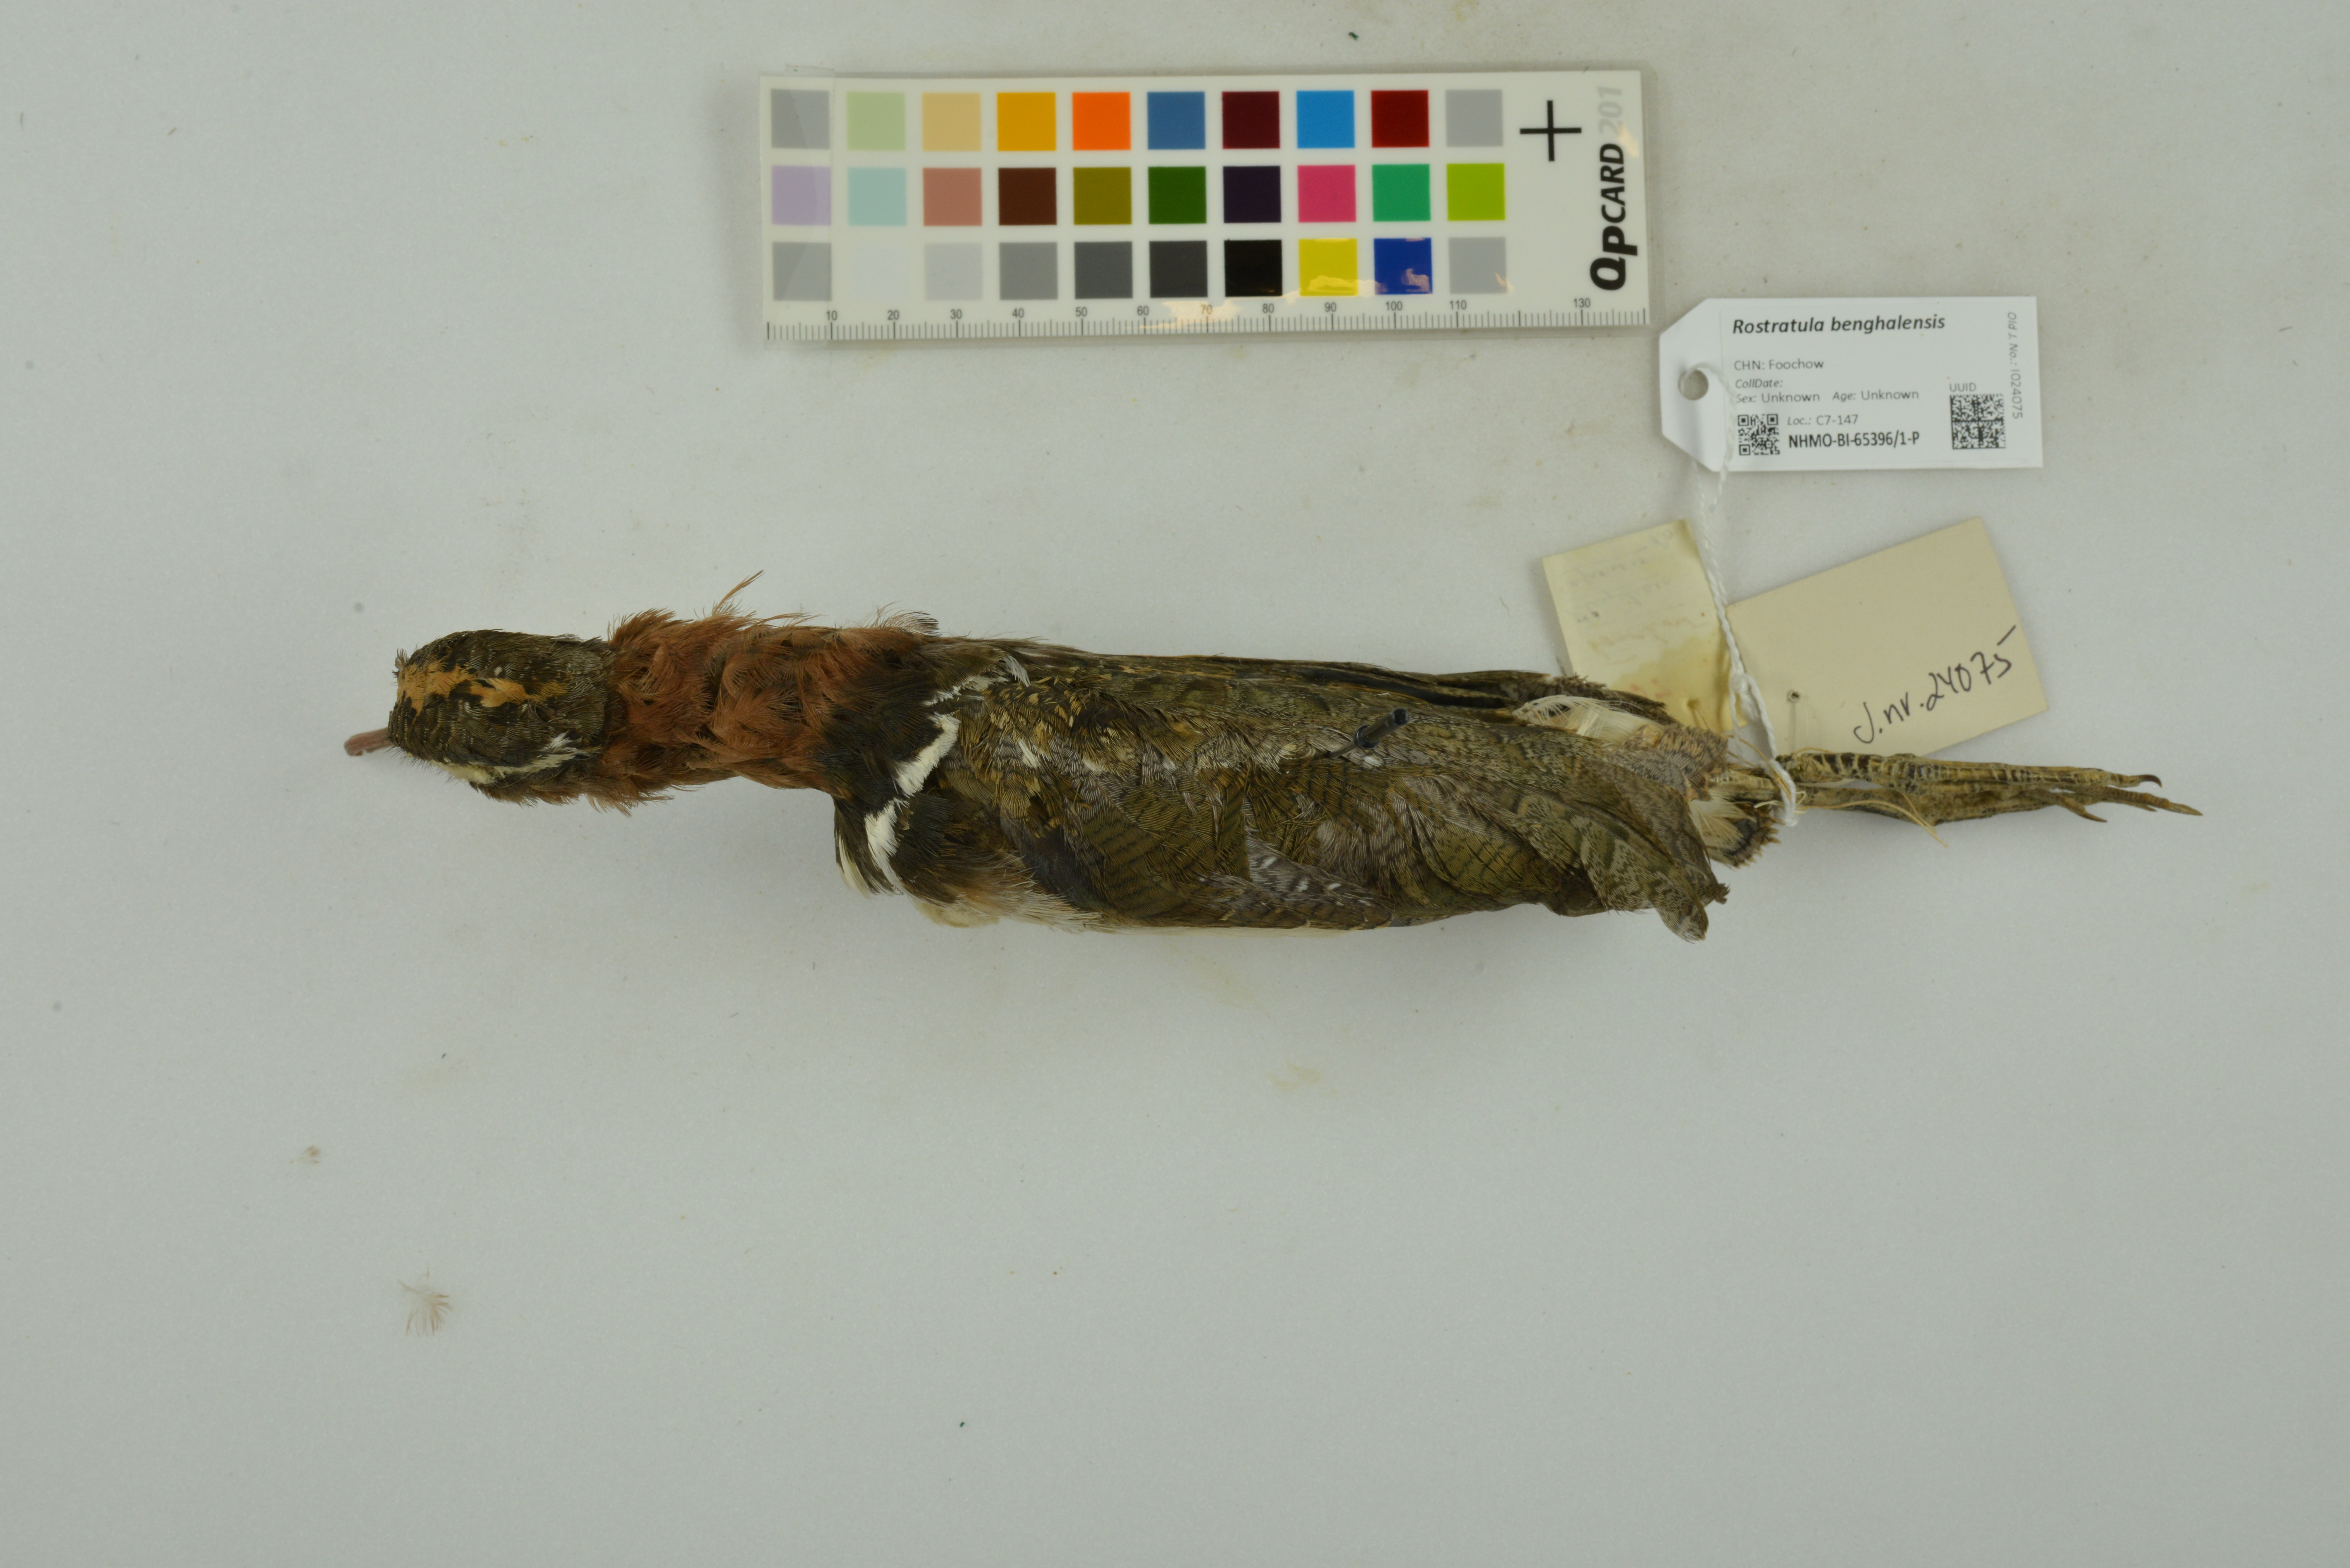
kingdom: Animalia
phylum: Chordata
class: Aves
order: Charadriiformes
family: Rostratulidae
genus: Rostratula
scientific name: Rostratula benghalensis
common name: Greater painted-snipe
